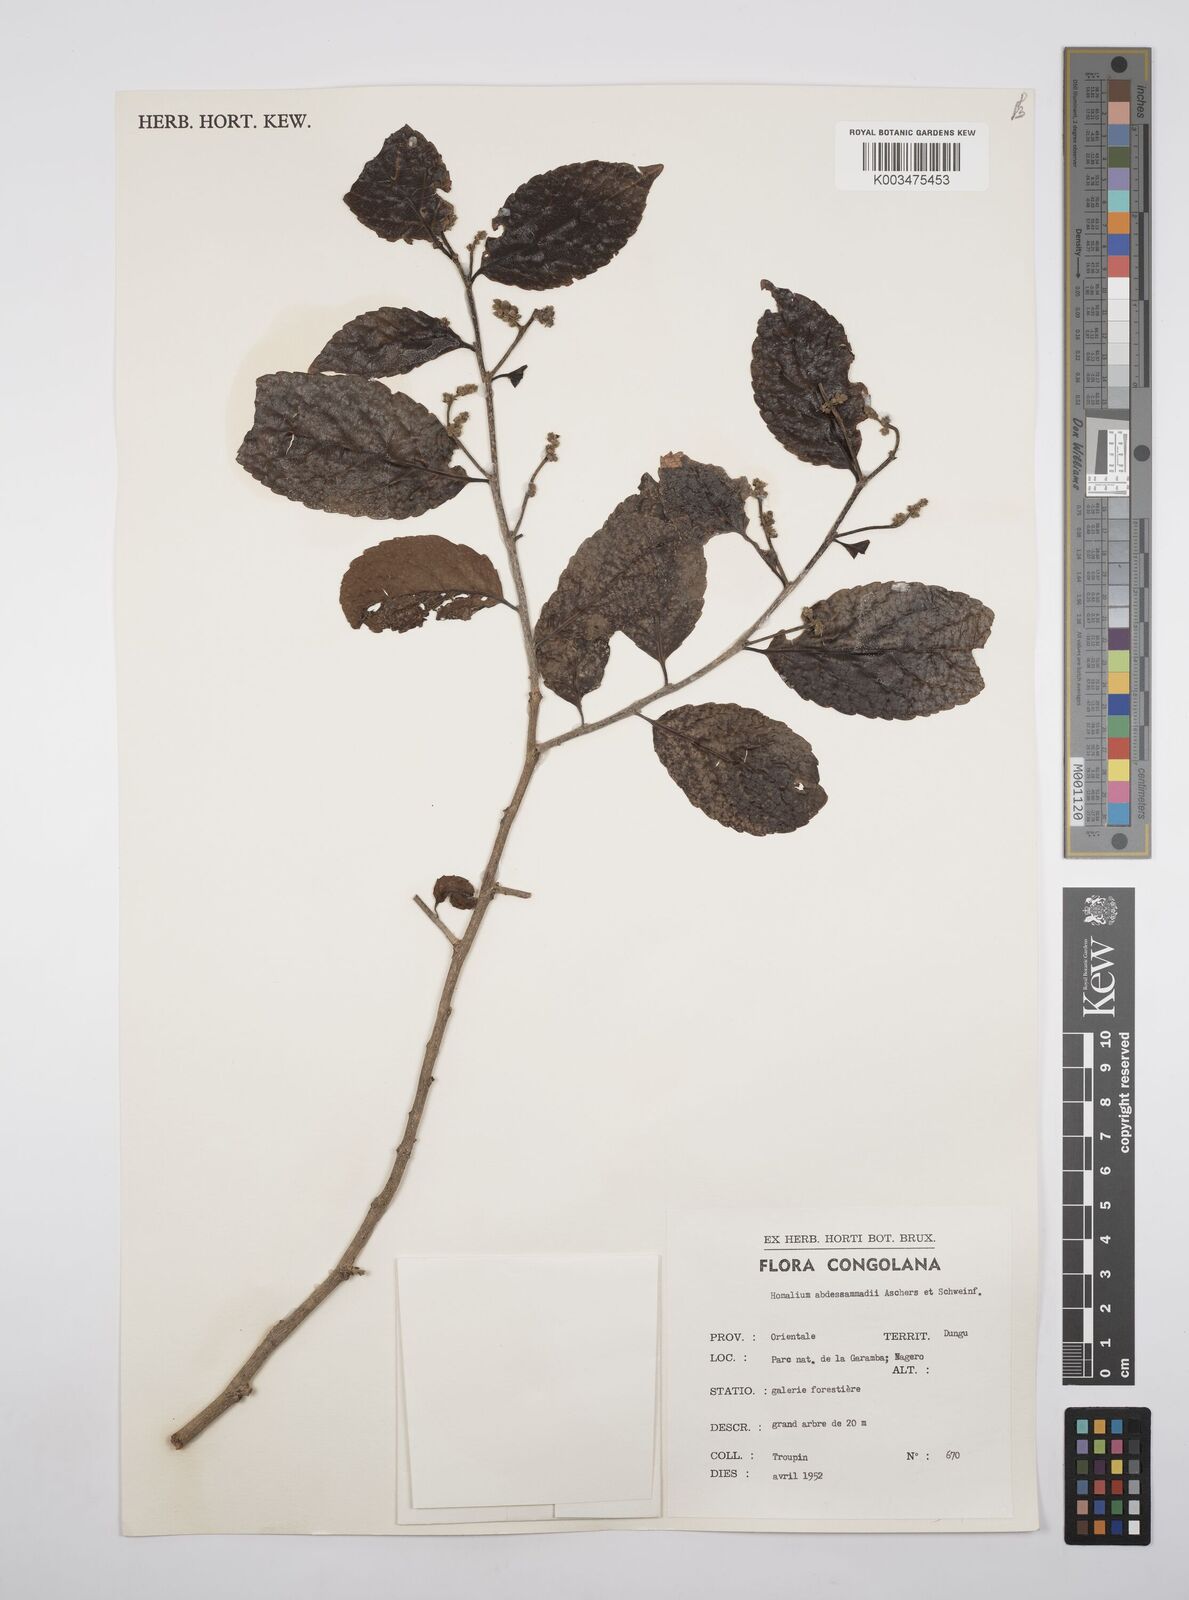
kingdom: Plantae
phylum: Tracheophyta
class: Magnoliopsida
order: Malpighiales
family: Salicaceae
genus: Homalium
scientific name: Homalium abdessammadii
